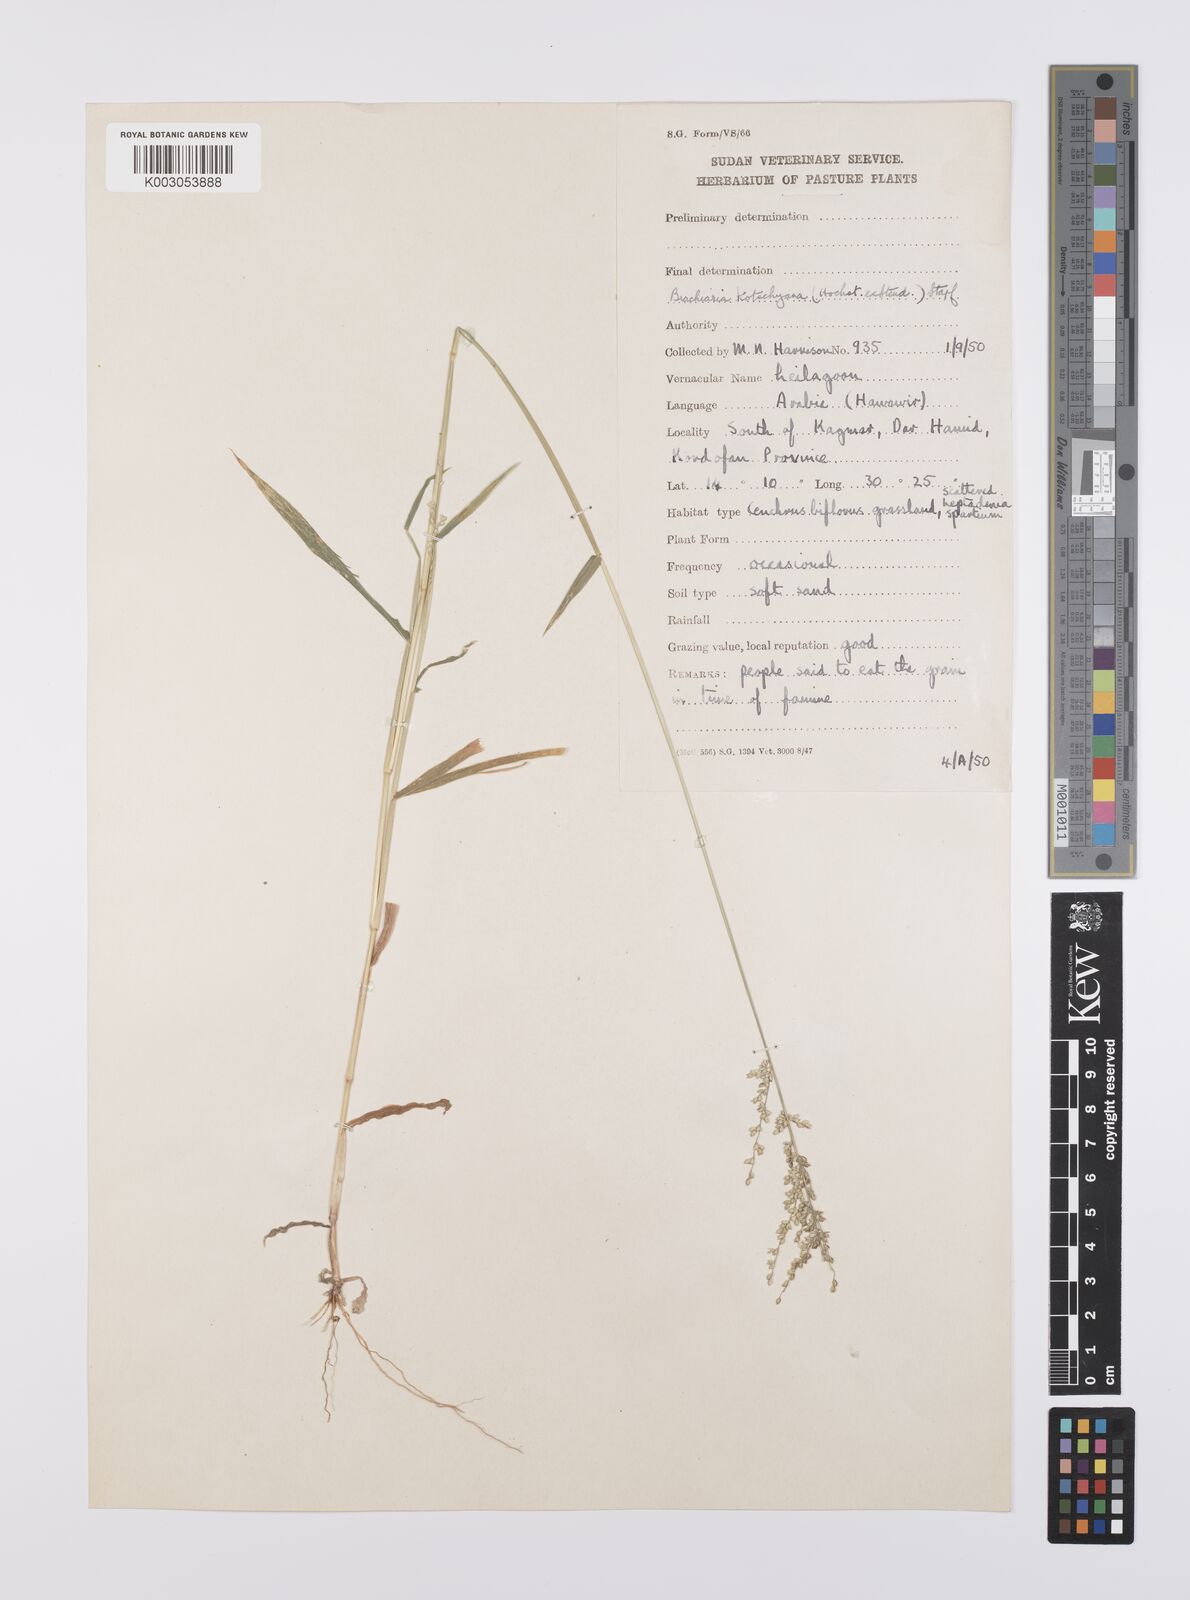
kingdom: Plantae
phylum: Tracheophyta
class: Liliopsida
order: Poales
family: Poaceae
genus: Urochloa
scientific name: Urochloa comata
